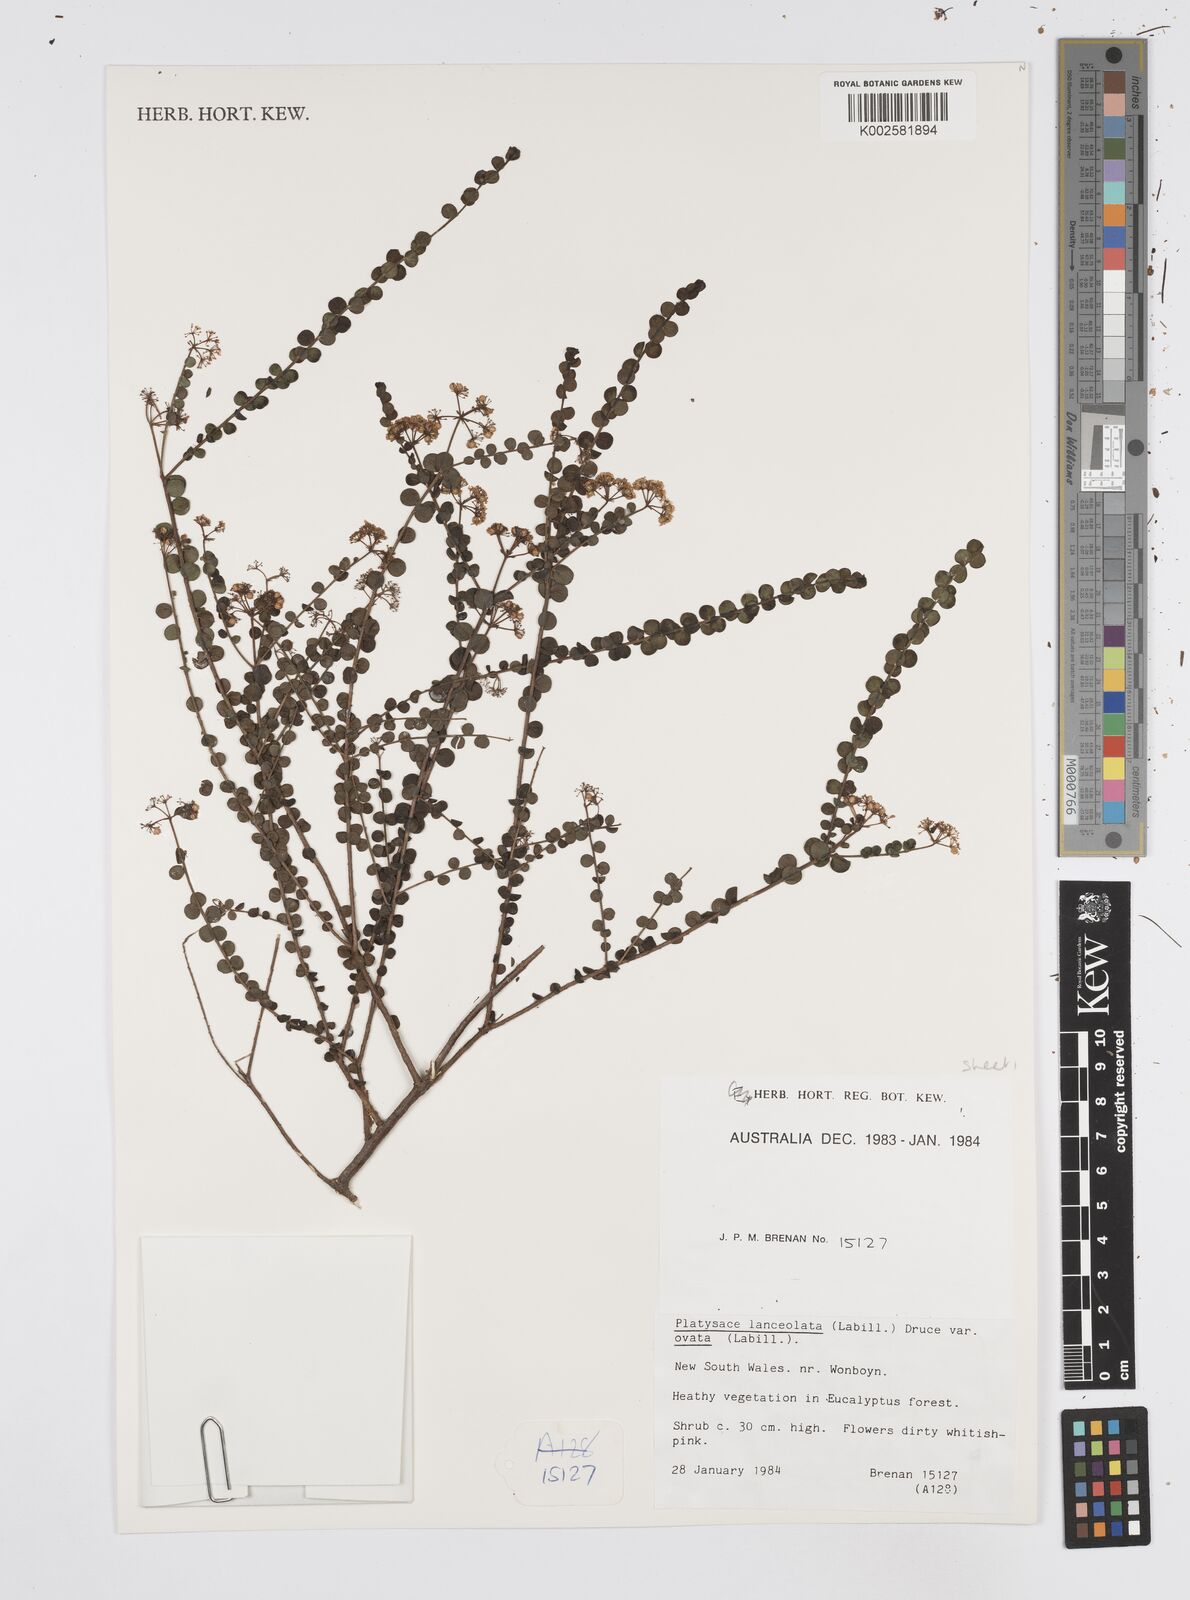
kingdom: Plantae
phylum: Tracheophyta
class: Magnoliopsida
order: Apiales
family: Apiaceae
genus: Platysace
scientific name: Platysace lanceolata
